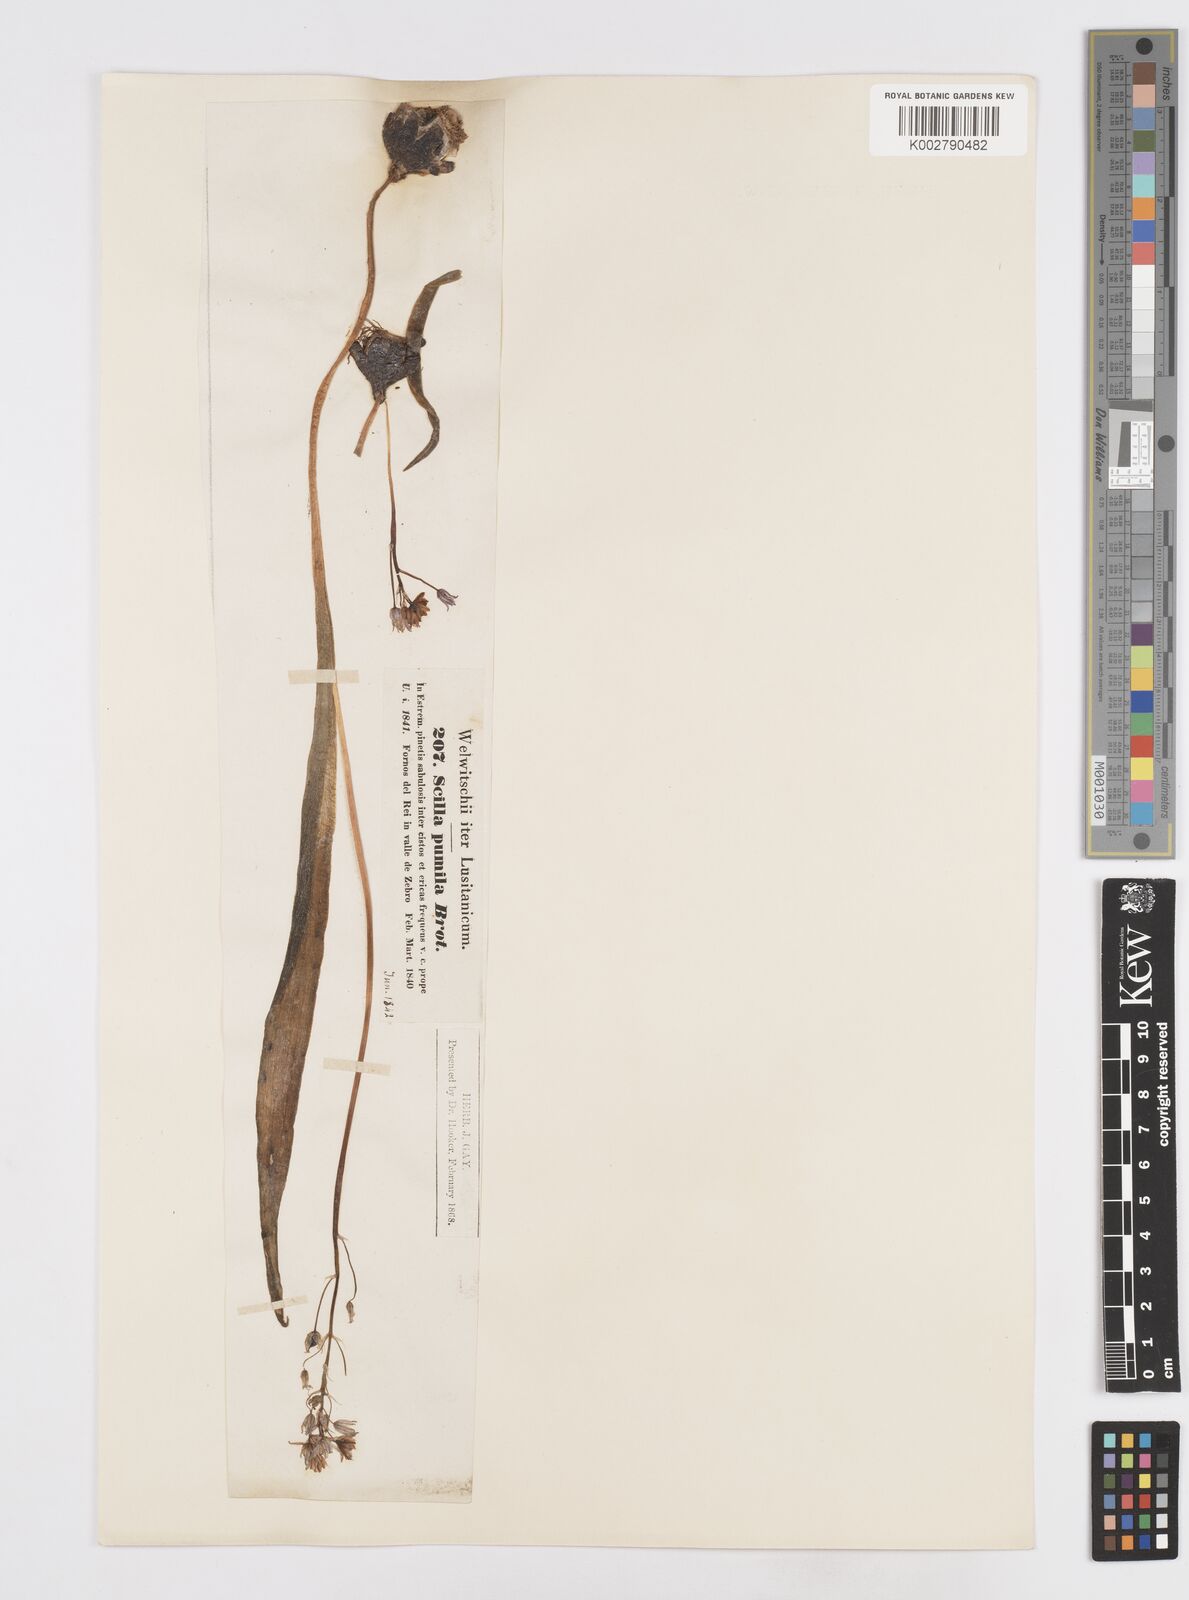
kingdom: Plantae
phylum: Tracheophyta
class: Liliopsida
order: Asparagales
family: Asparagaceae
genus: Scilla
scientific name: Scilla monophyllos
